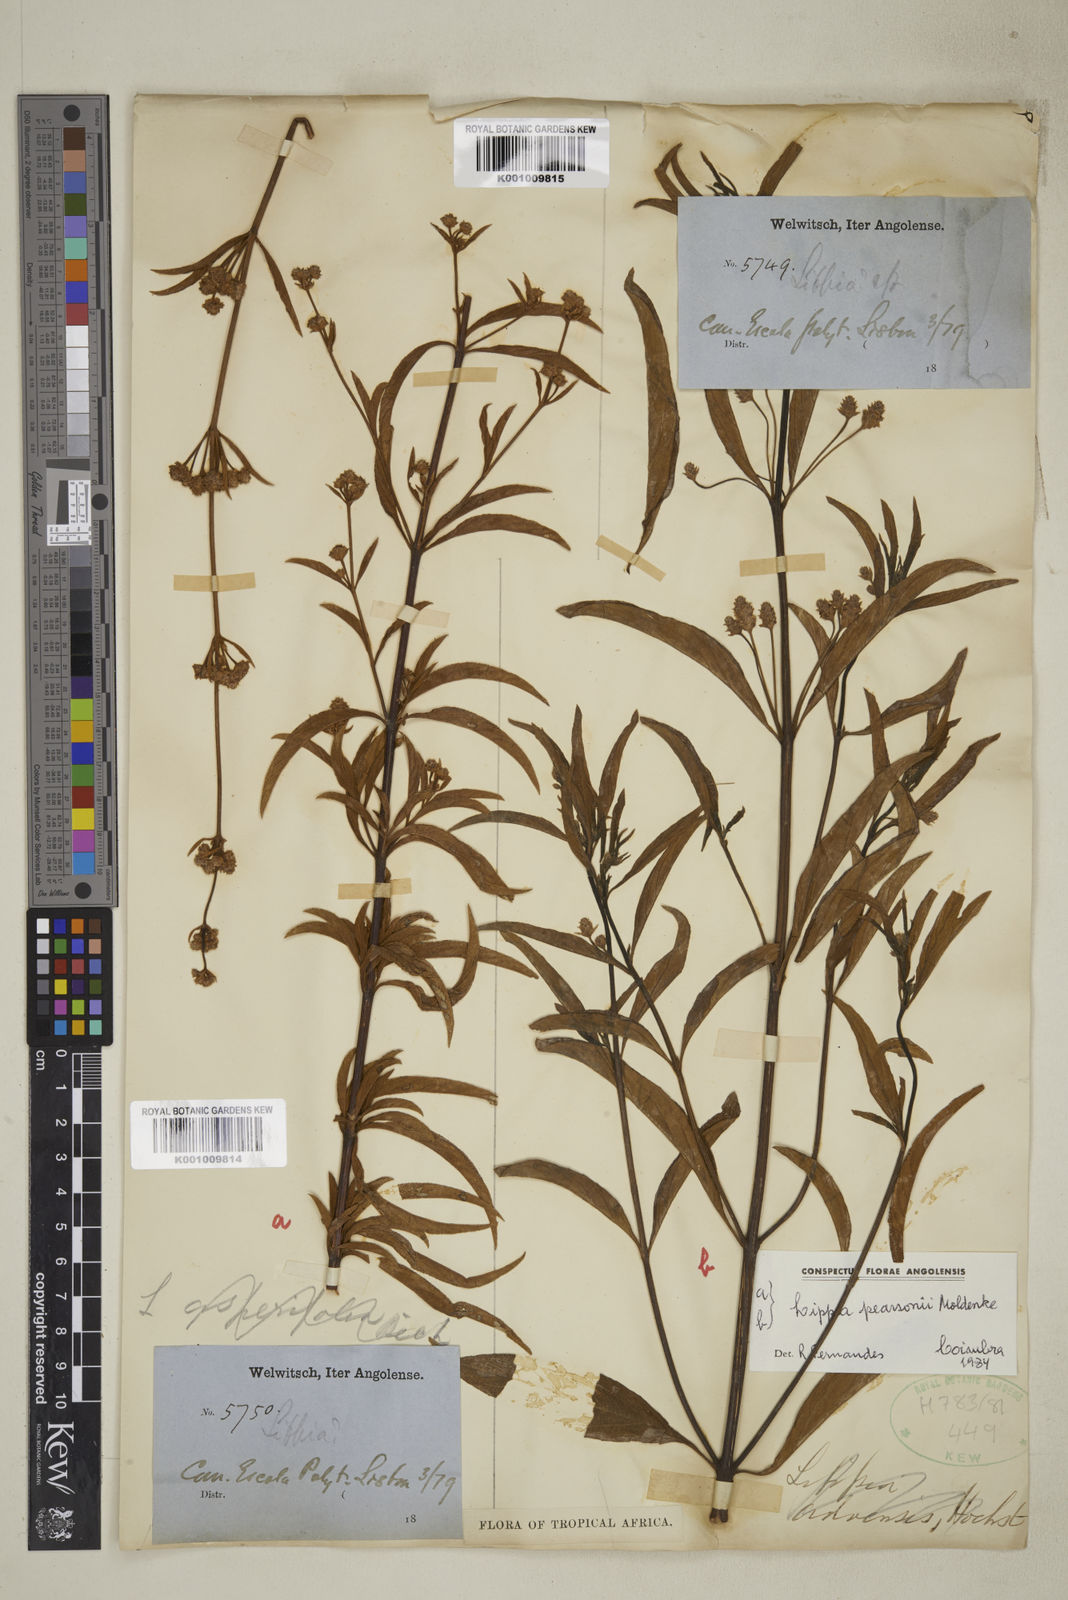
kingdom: Plantae
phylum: Tracheophyta
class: Magnoliopsida
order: Lamiales
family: Verbenaceae
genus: Lippia
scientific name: Lippia pearsonii
